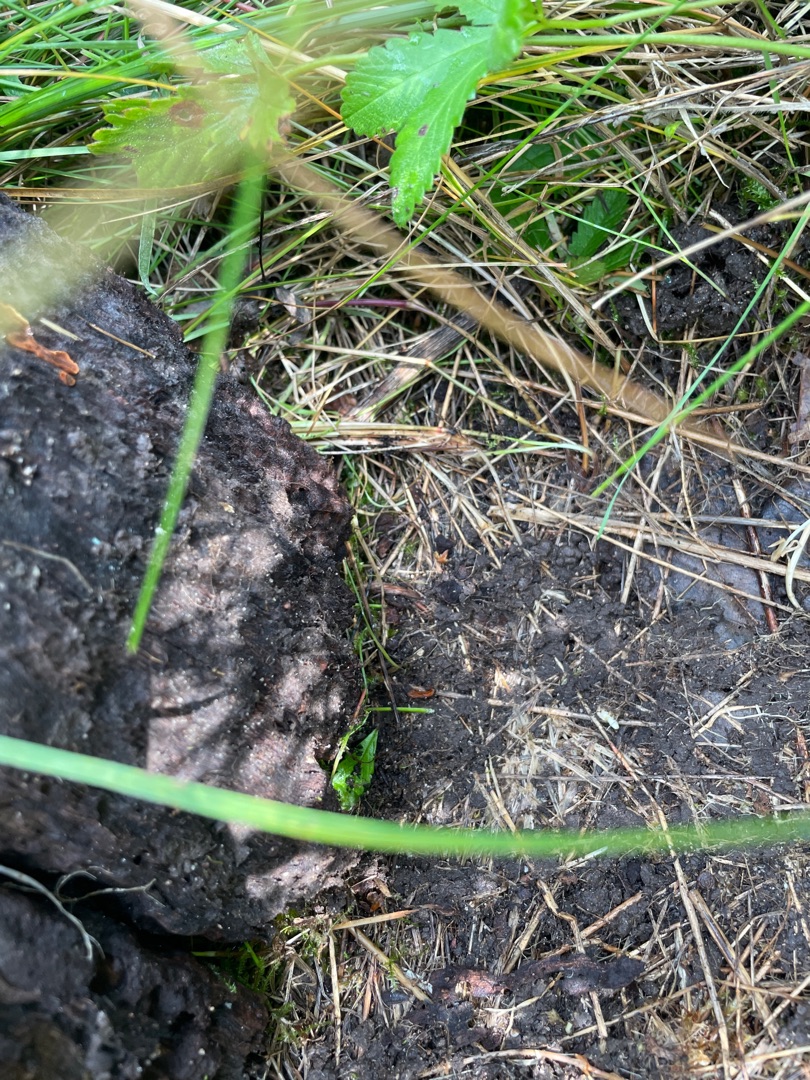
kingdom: Animalia
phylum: Chordata
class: Squamata
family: Lacertidae
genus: Zootoca
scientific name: Zootoca vivipara
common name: Skovfirben
